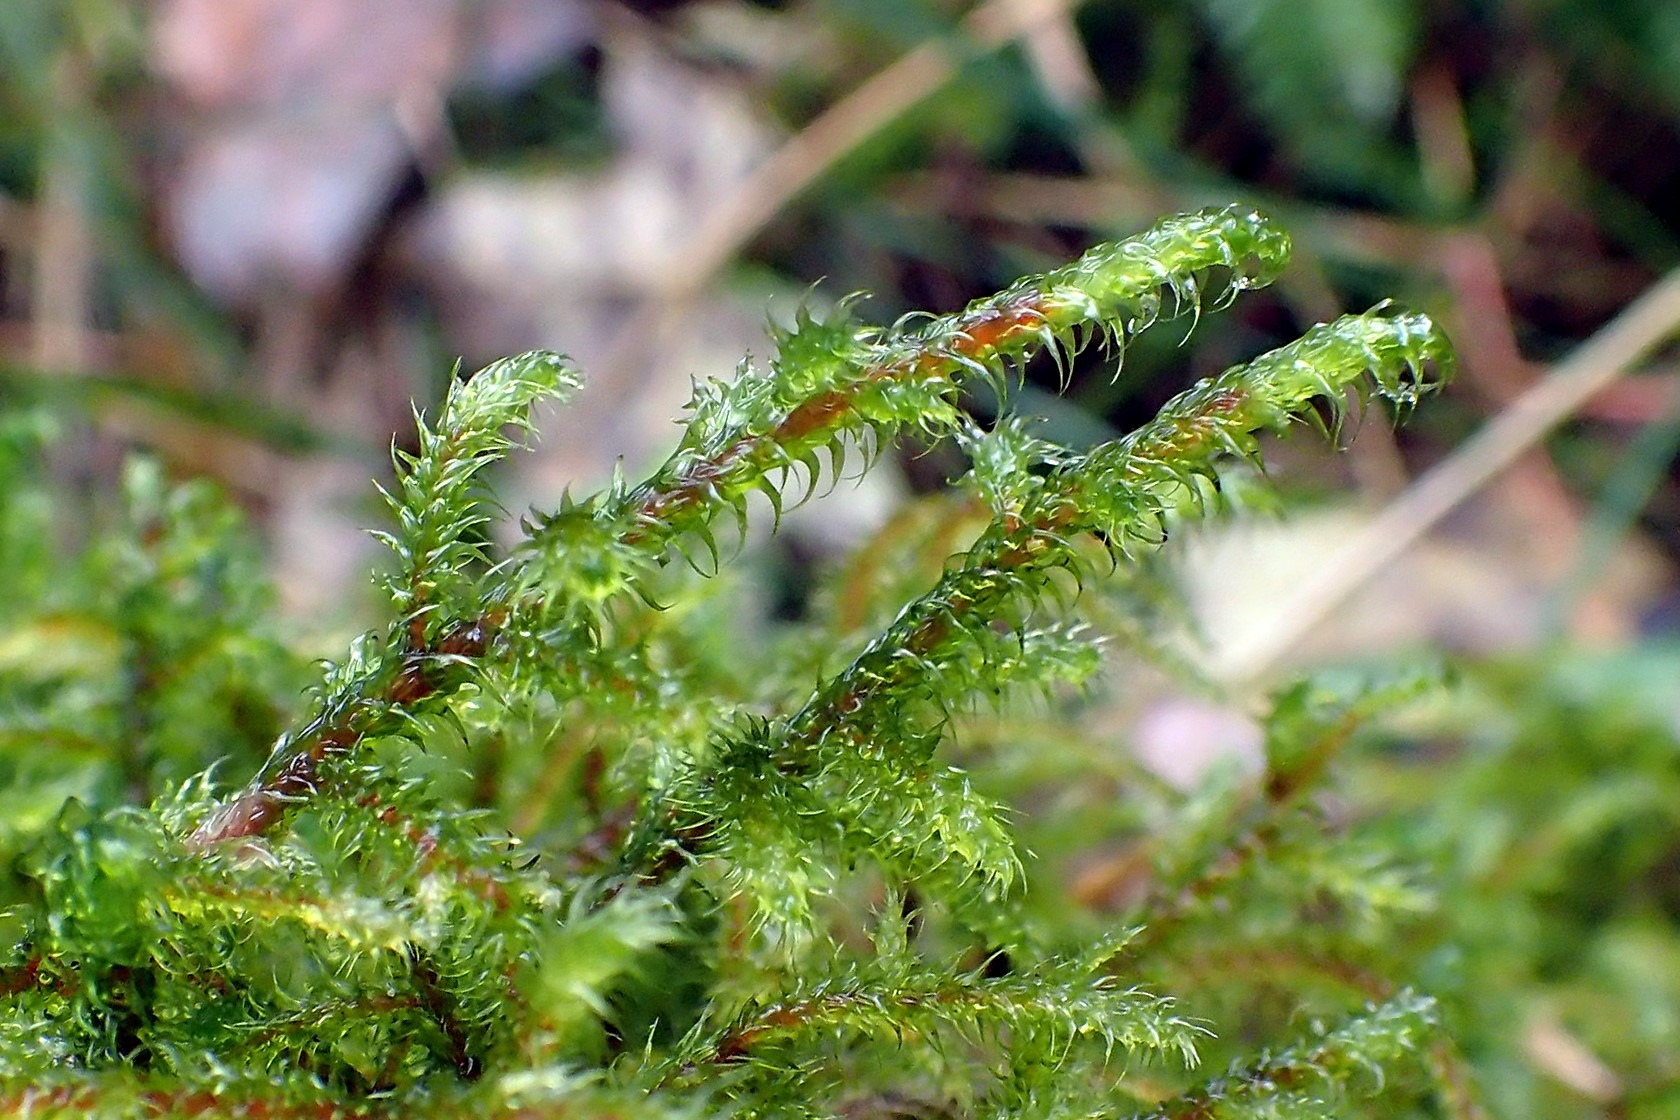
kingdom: Plantae
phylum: Bryophyta
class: Bryopsida
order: Hypnales
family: Hylocomiaceae
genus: Rhytidiadelphus
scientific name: Rhytidiadelphus loreus
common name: Ulvefod-kransemos
